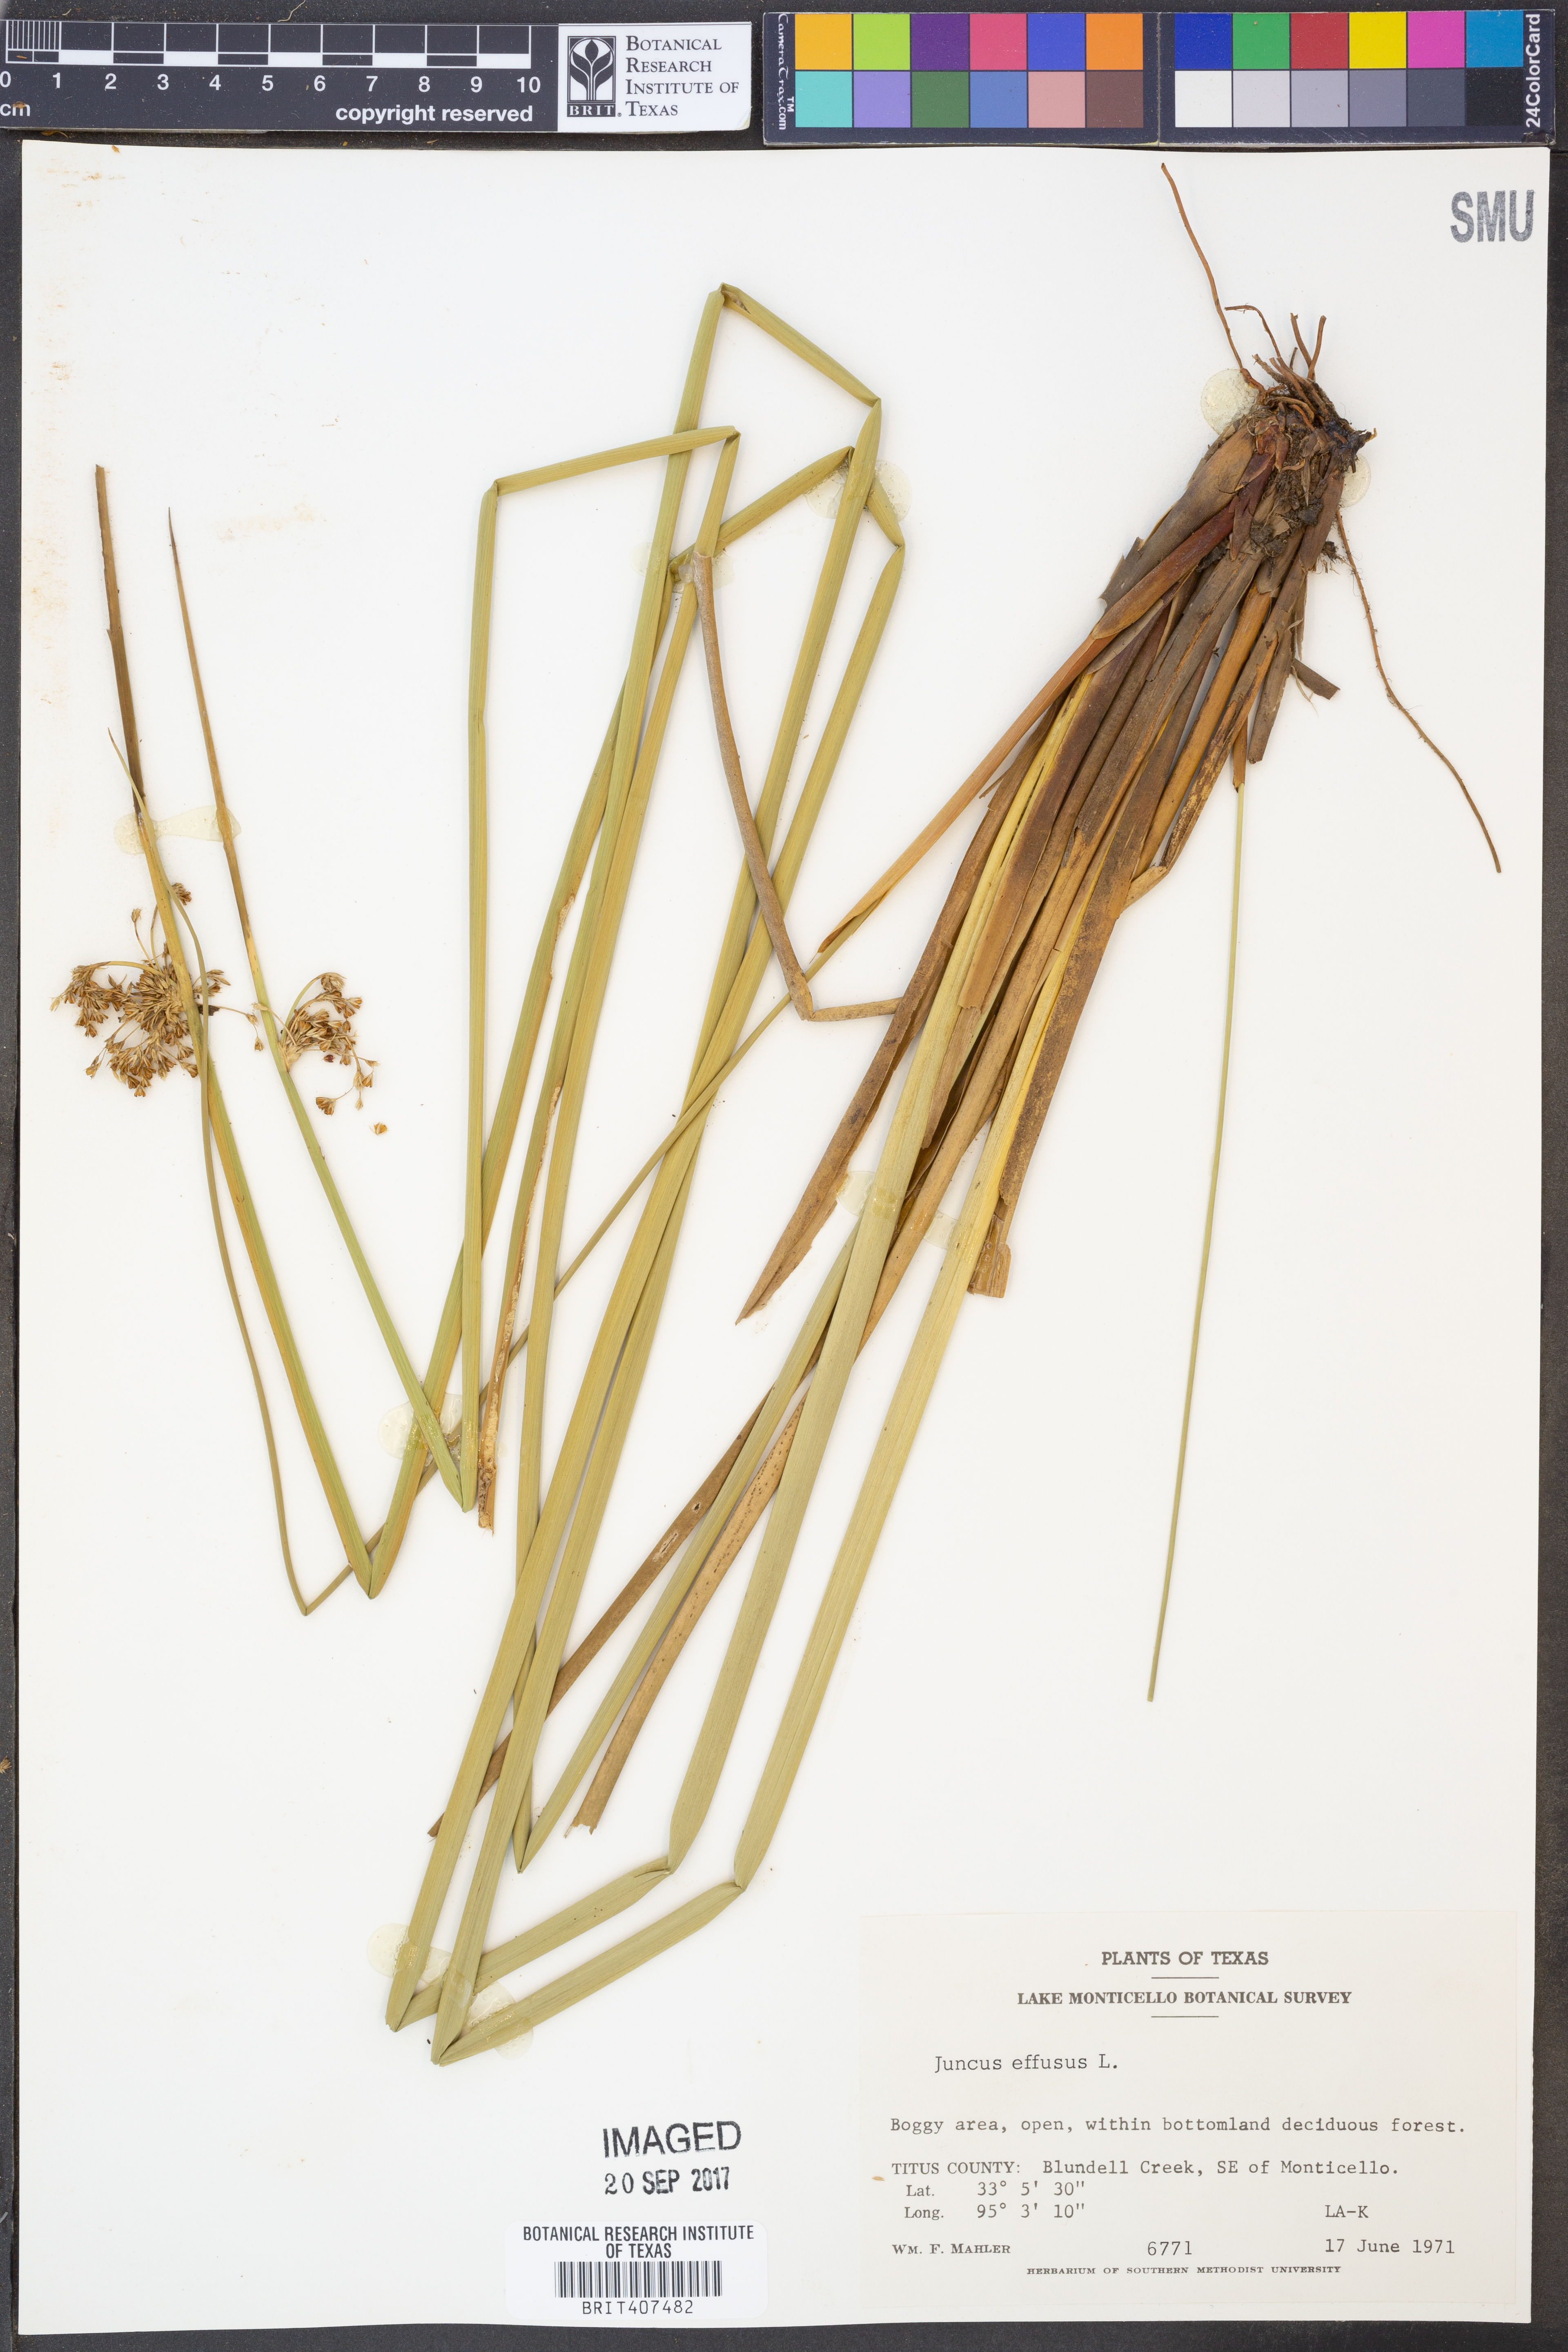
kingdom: Plantae
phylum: Tracheophyta
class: Liliopsida
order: Poales
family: Juncaceae
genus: Juncus
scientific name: Juncus effusus
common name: Soft rush
